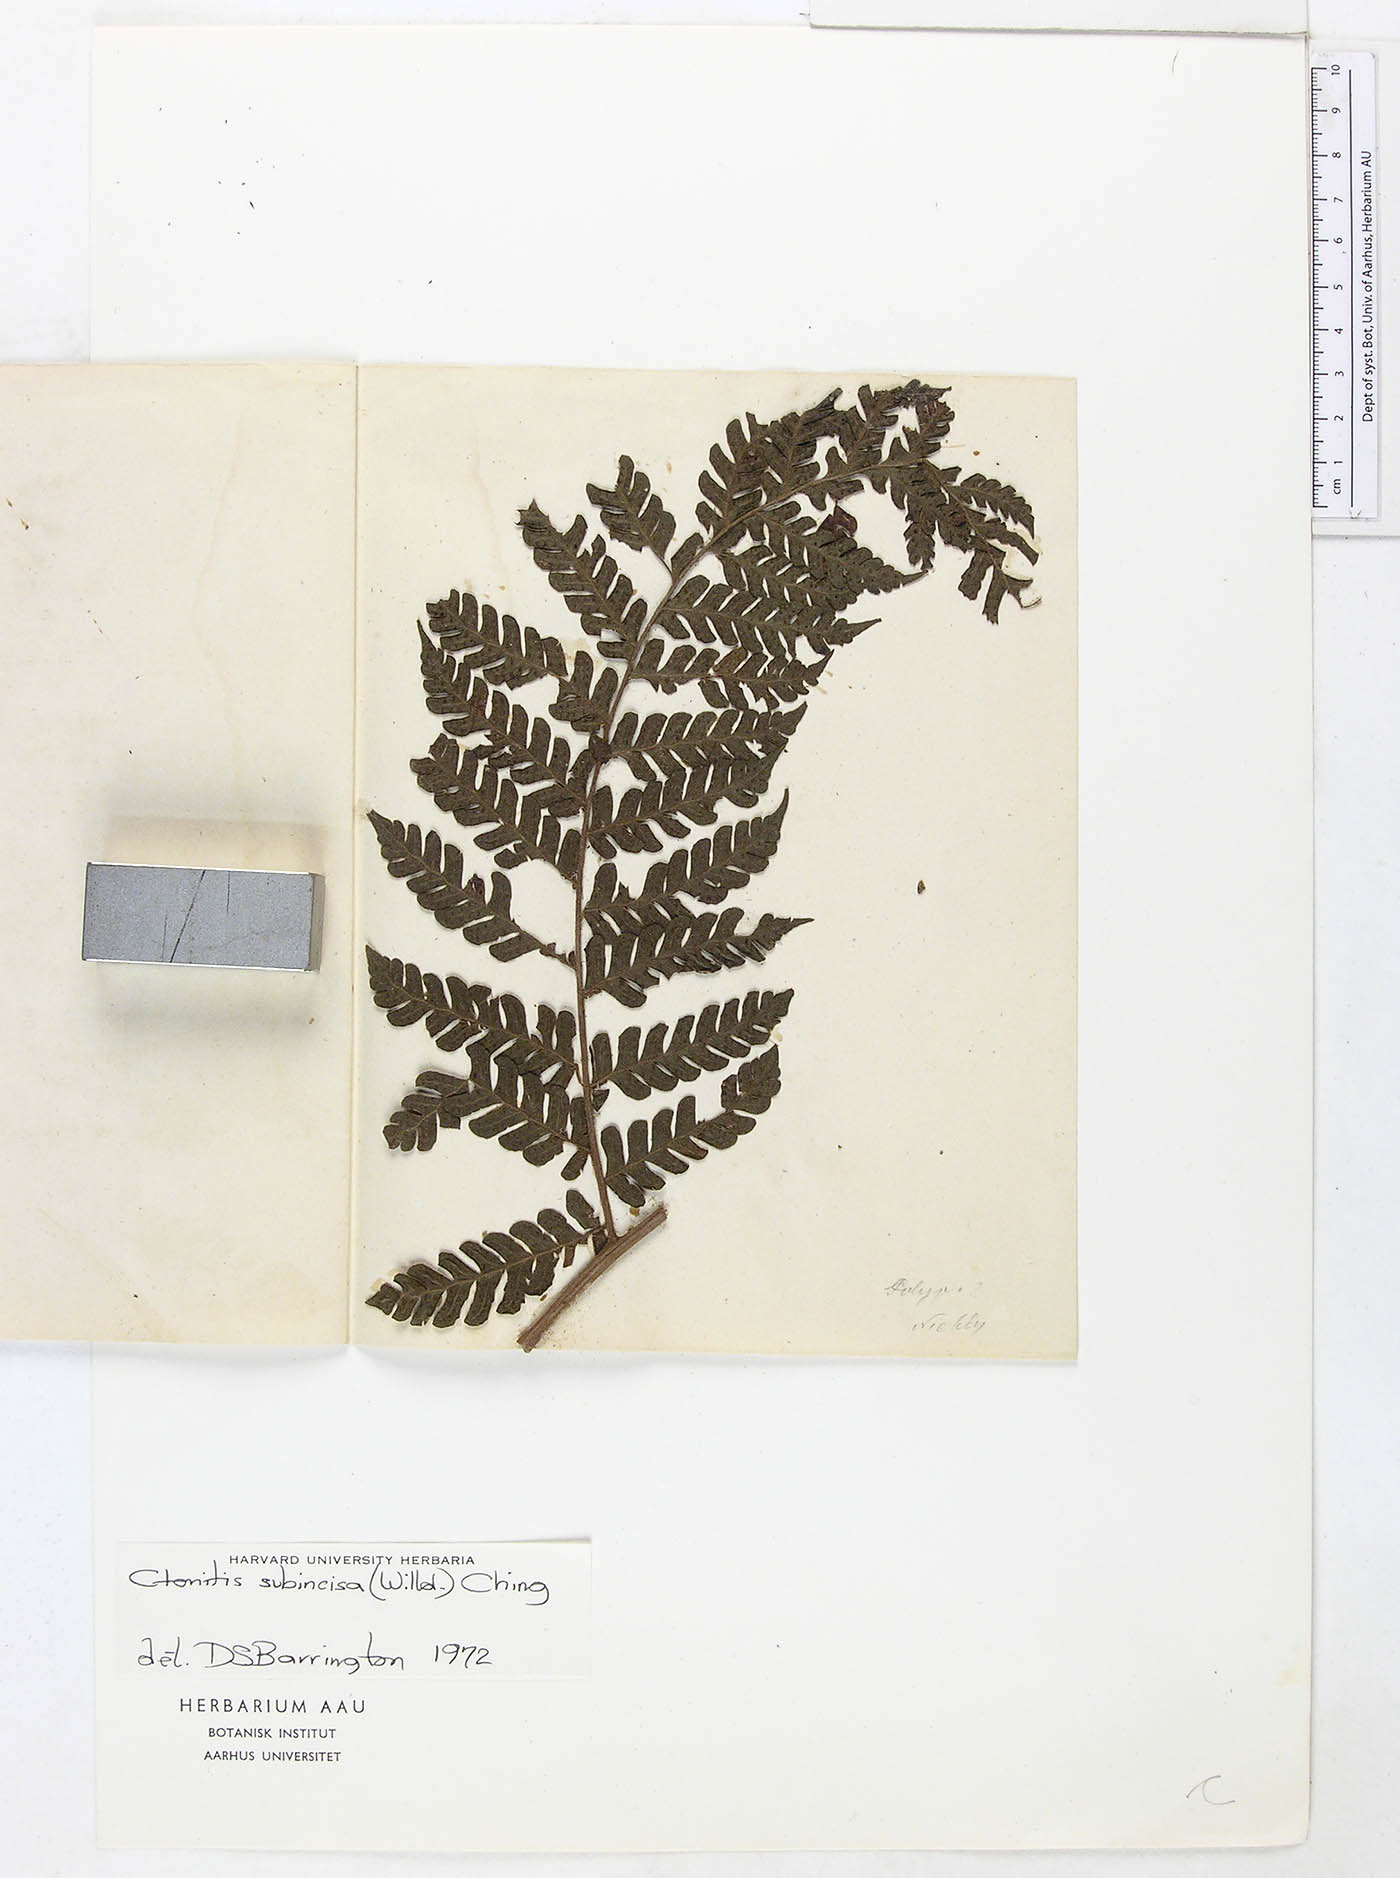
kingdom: Plantae
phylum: Tracheophyta
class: Polypodiopsida
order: Polypodiales
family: Dryopteridaceae
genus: Megalastrum
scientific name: Megalastrum mollicomum
